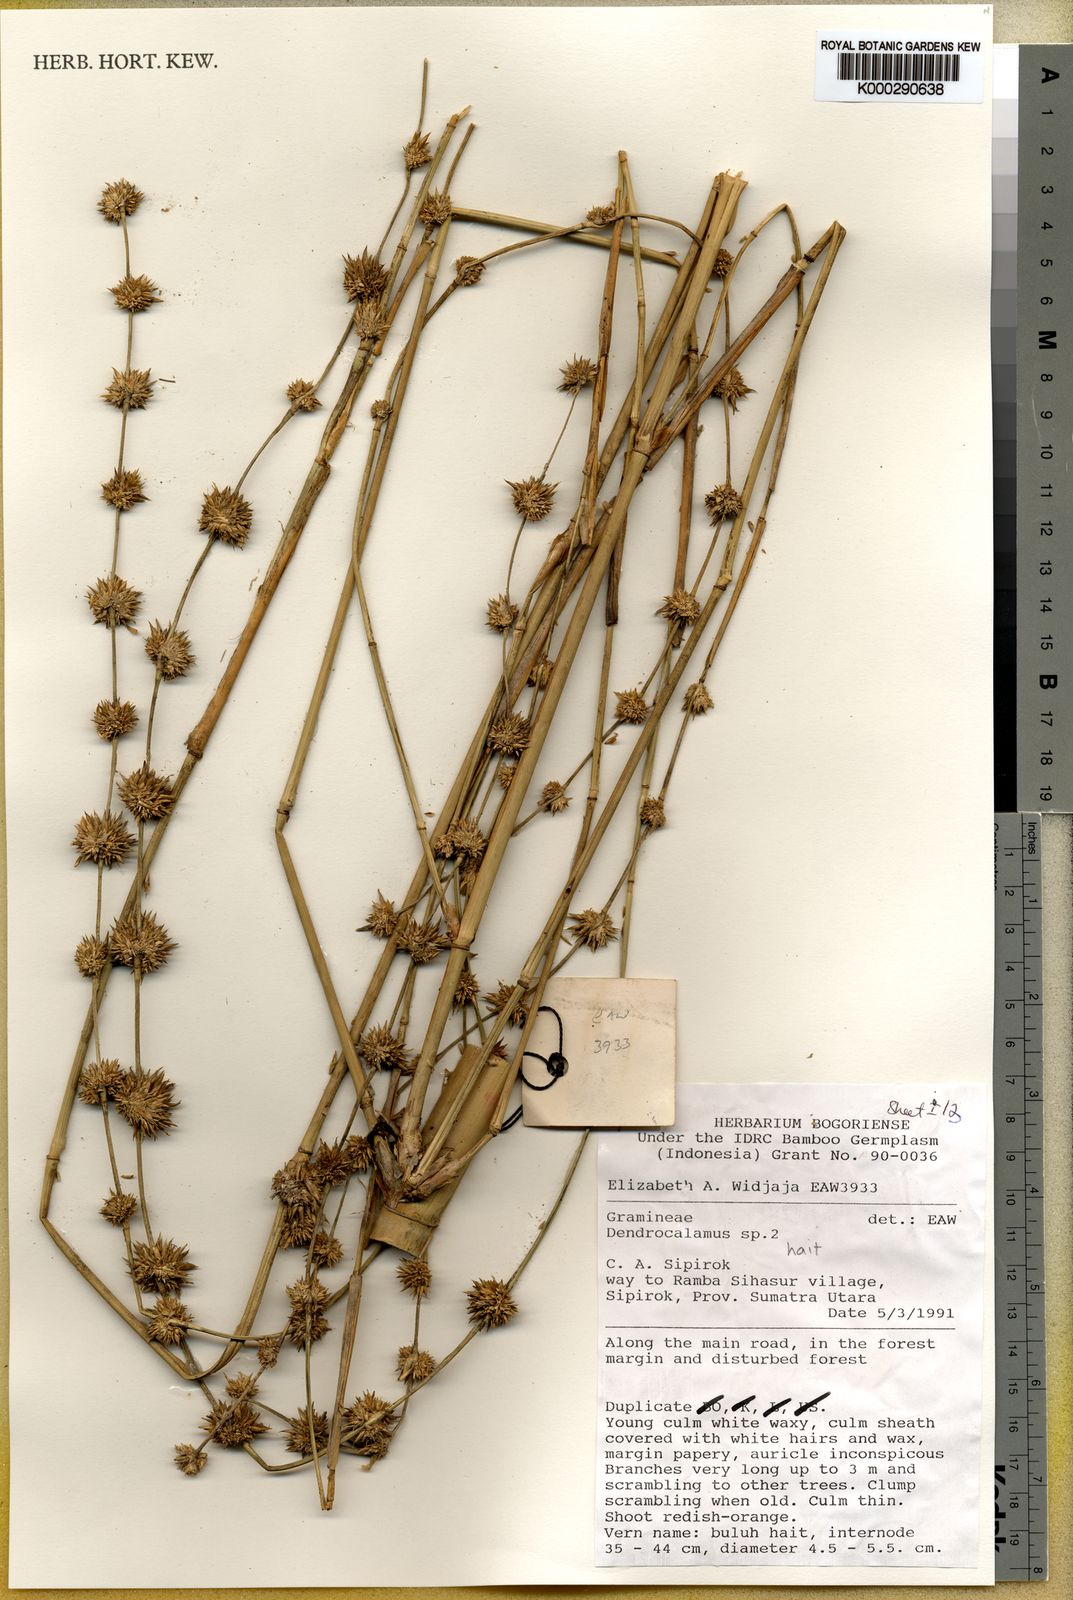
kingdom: Plantae
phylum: Tracheophyta
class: Liliopsida
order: Poales
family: Poaceae
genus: Dendrocalamus
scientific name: Dendrocalamus hait
